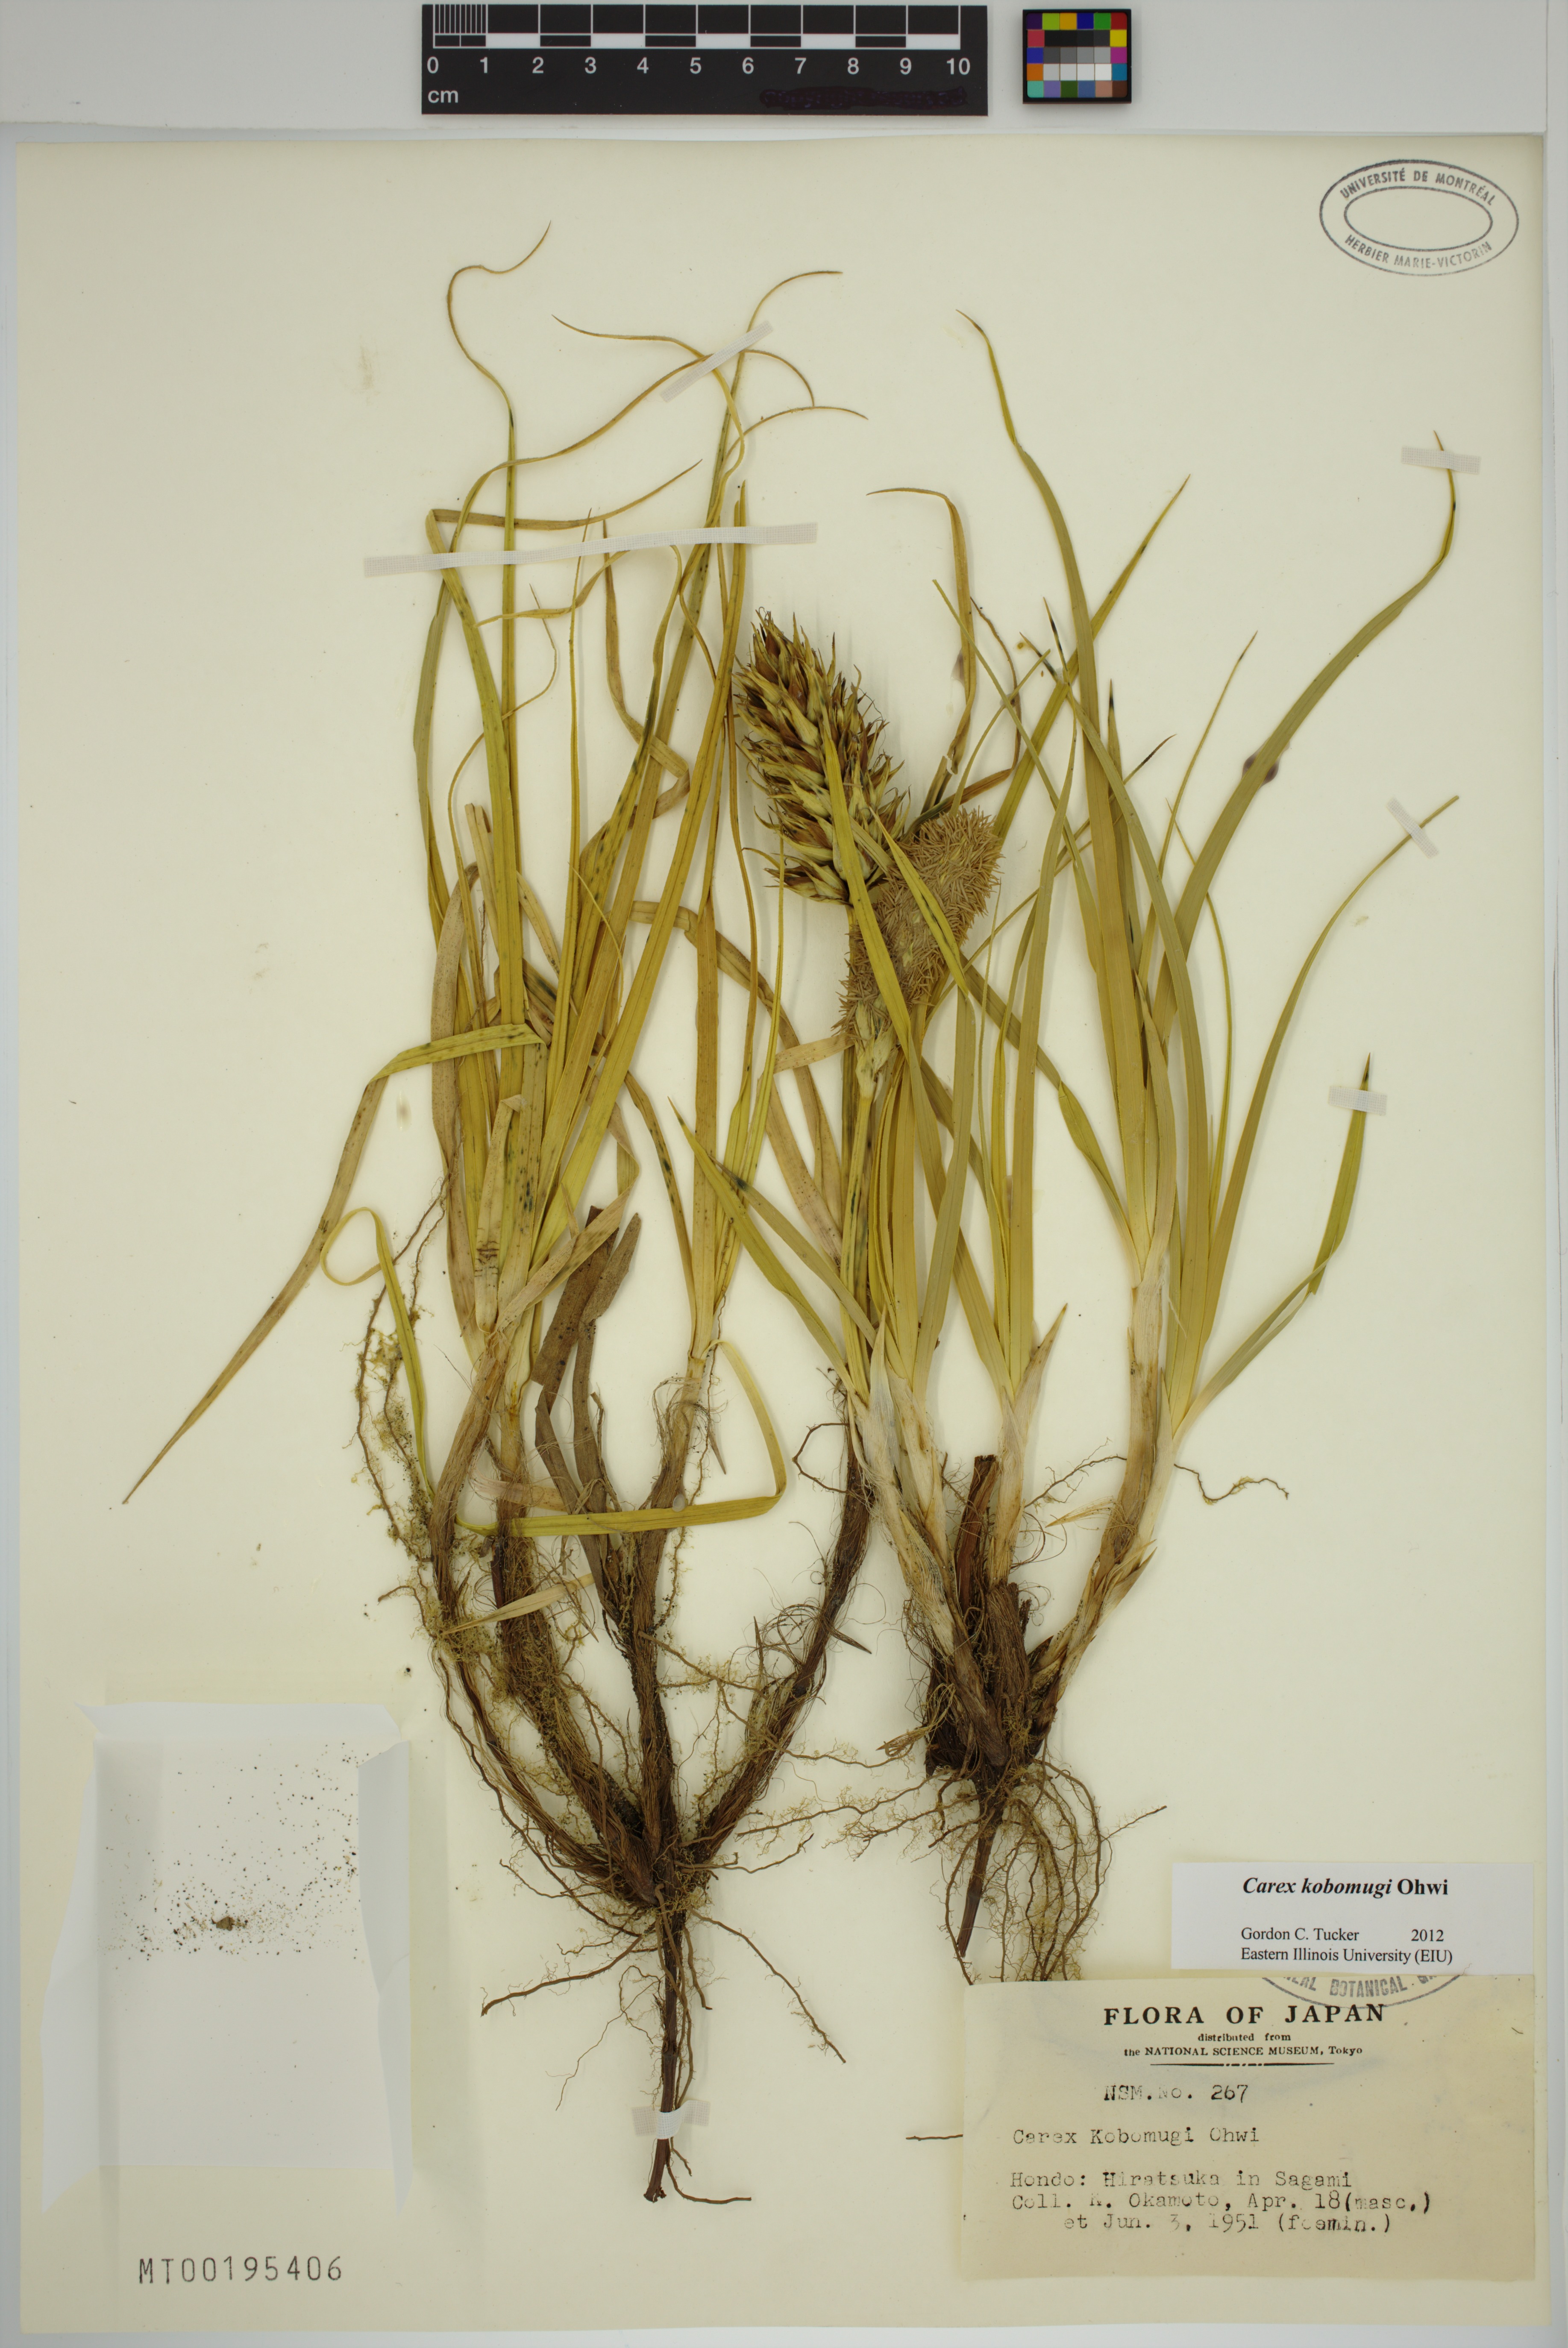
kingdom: Plantae
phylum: Tracheophyta
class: Liliopsida
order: Poales
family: Cyperaceae
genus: Carex
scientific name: Carex kobomugi
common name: Japanese sedge
